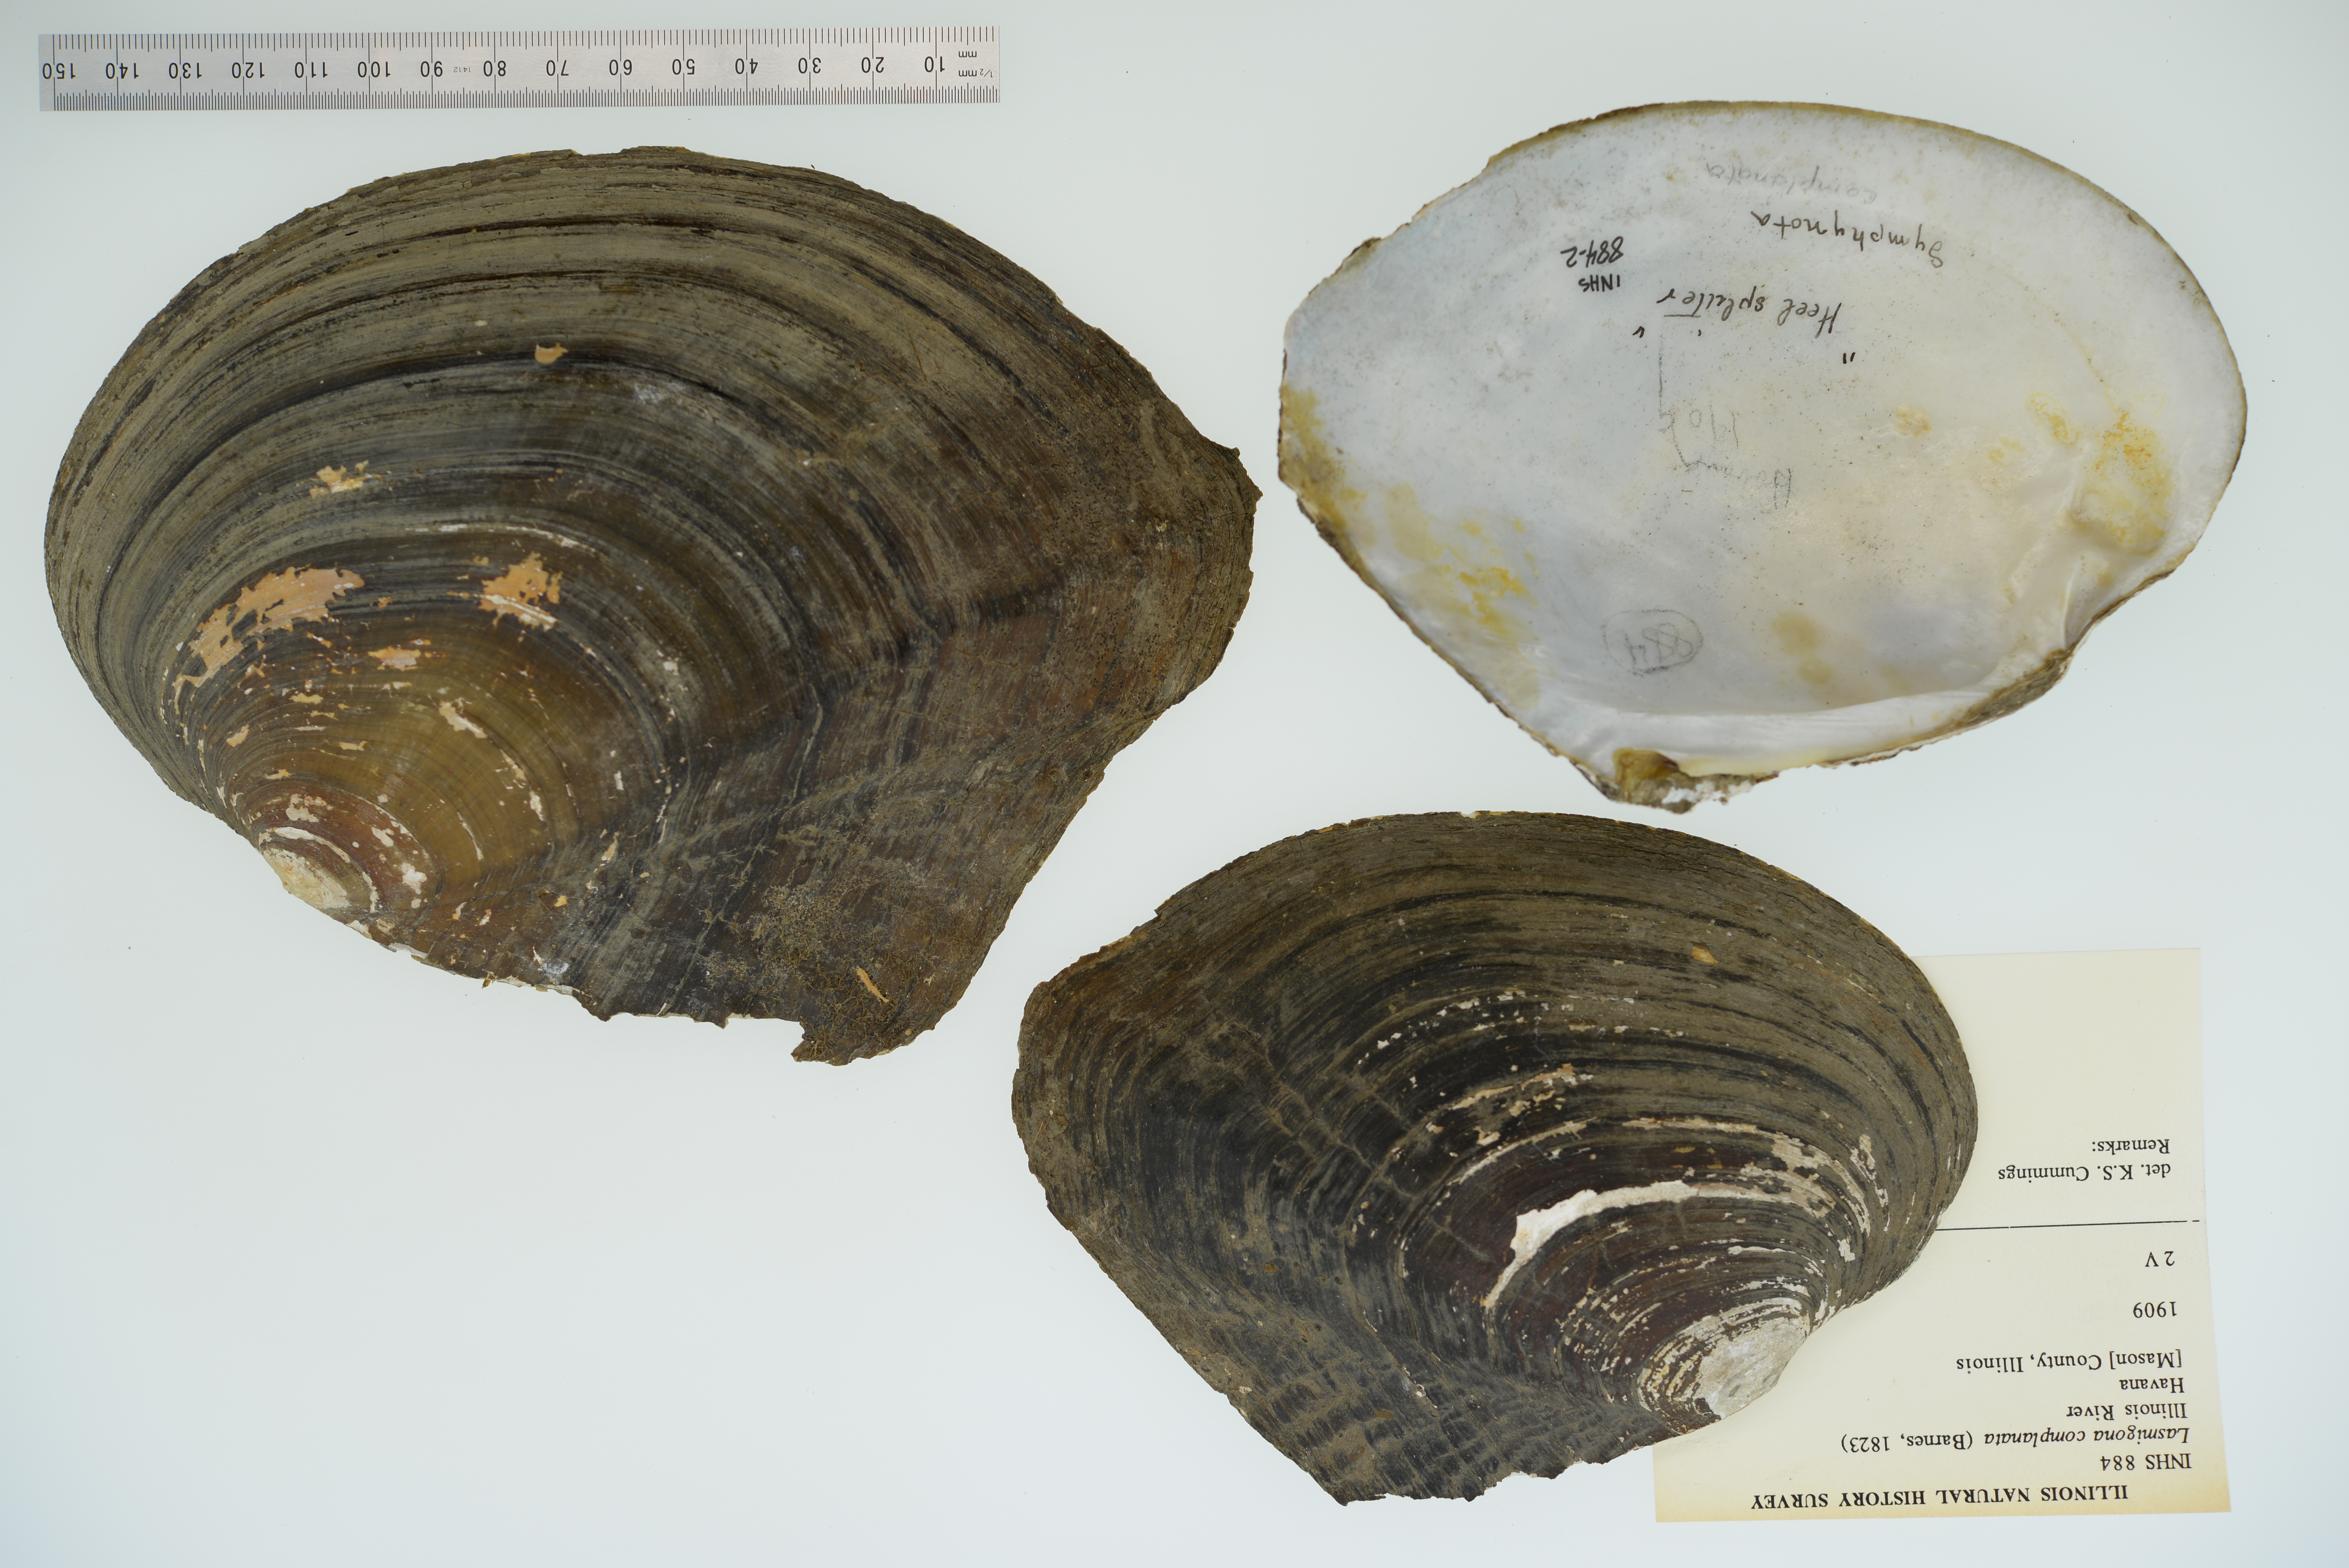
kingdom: Animalia
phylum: Mollusca
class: Bivalvia
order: Unionida
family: Unionidae
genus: Lasmigona
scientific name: Lasmigona complanata
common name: White heelsplitter
